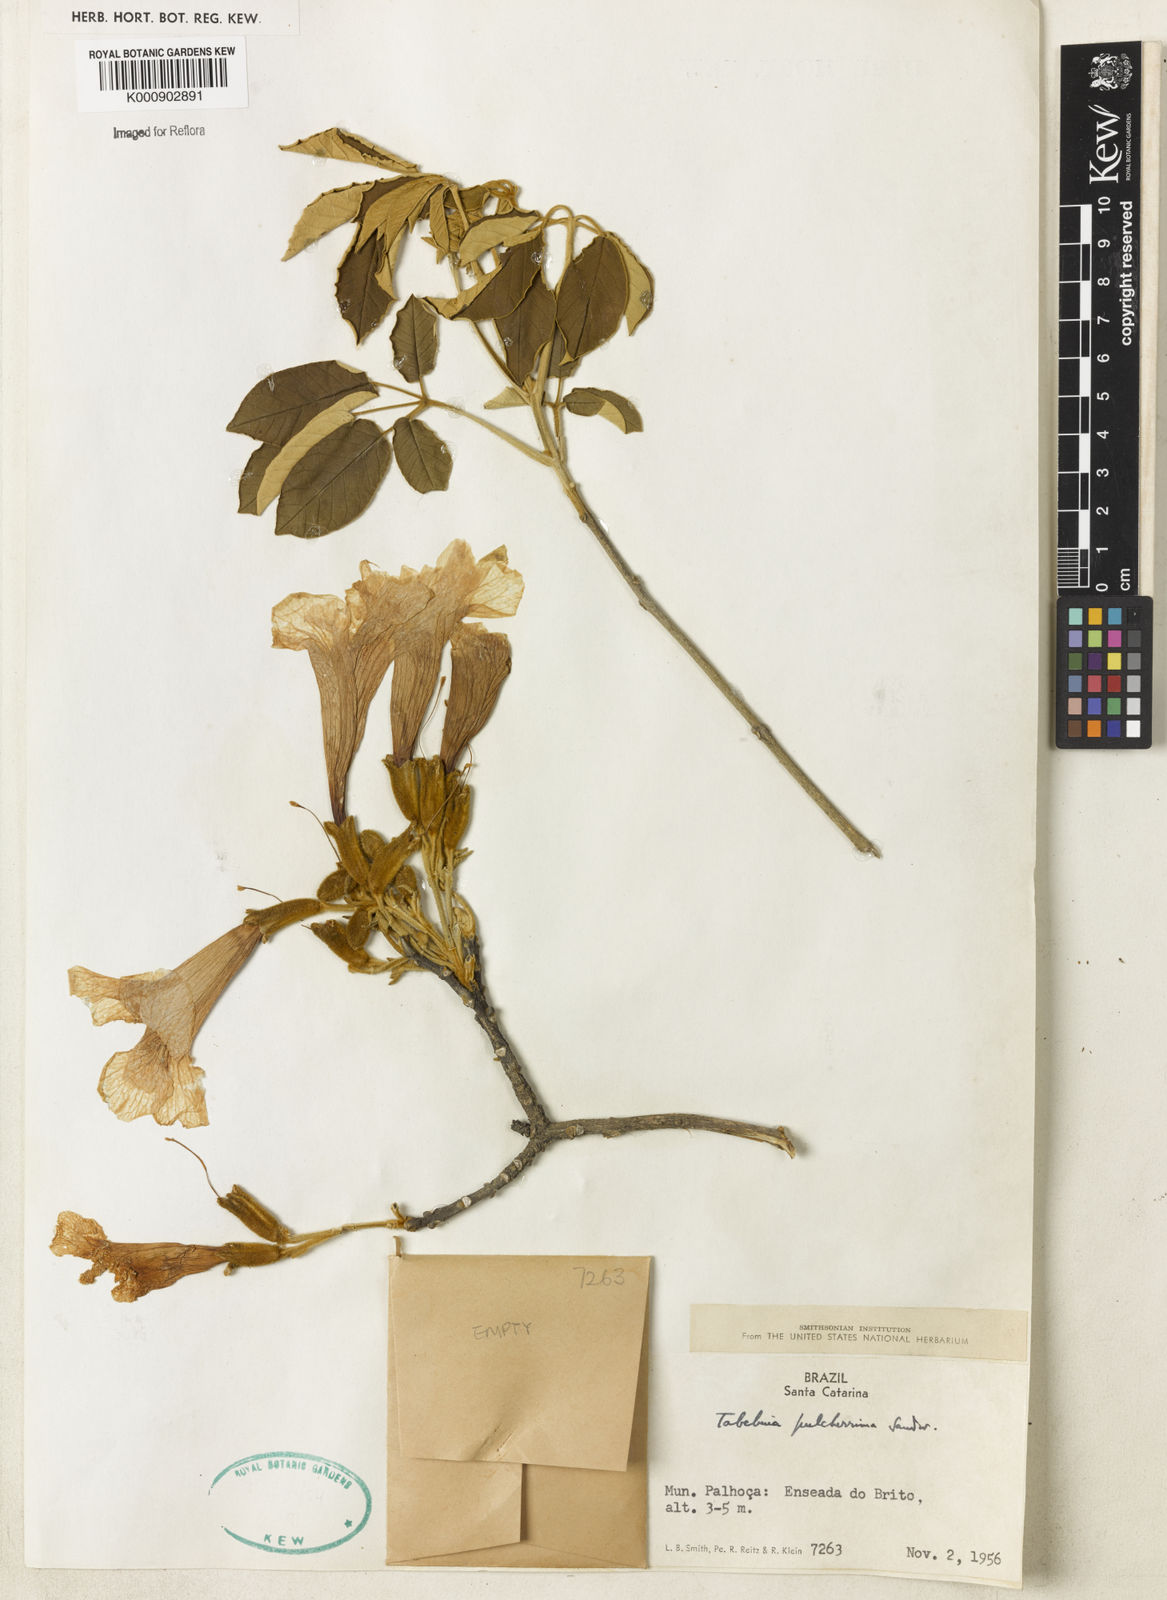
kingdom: Plantae
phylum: Tracheophyta
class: Magnoliopsida
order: Lamiales
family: Bignoniaceae
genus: Handroanthus
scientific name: Handroanthus pulcherrimus
